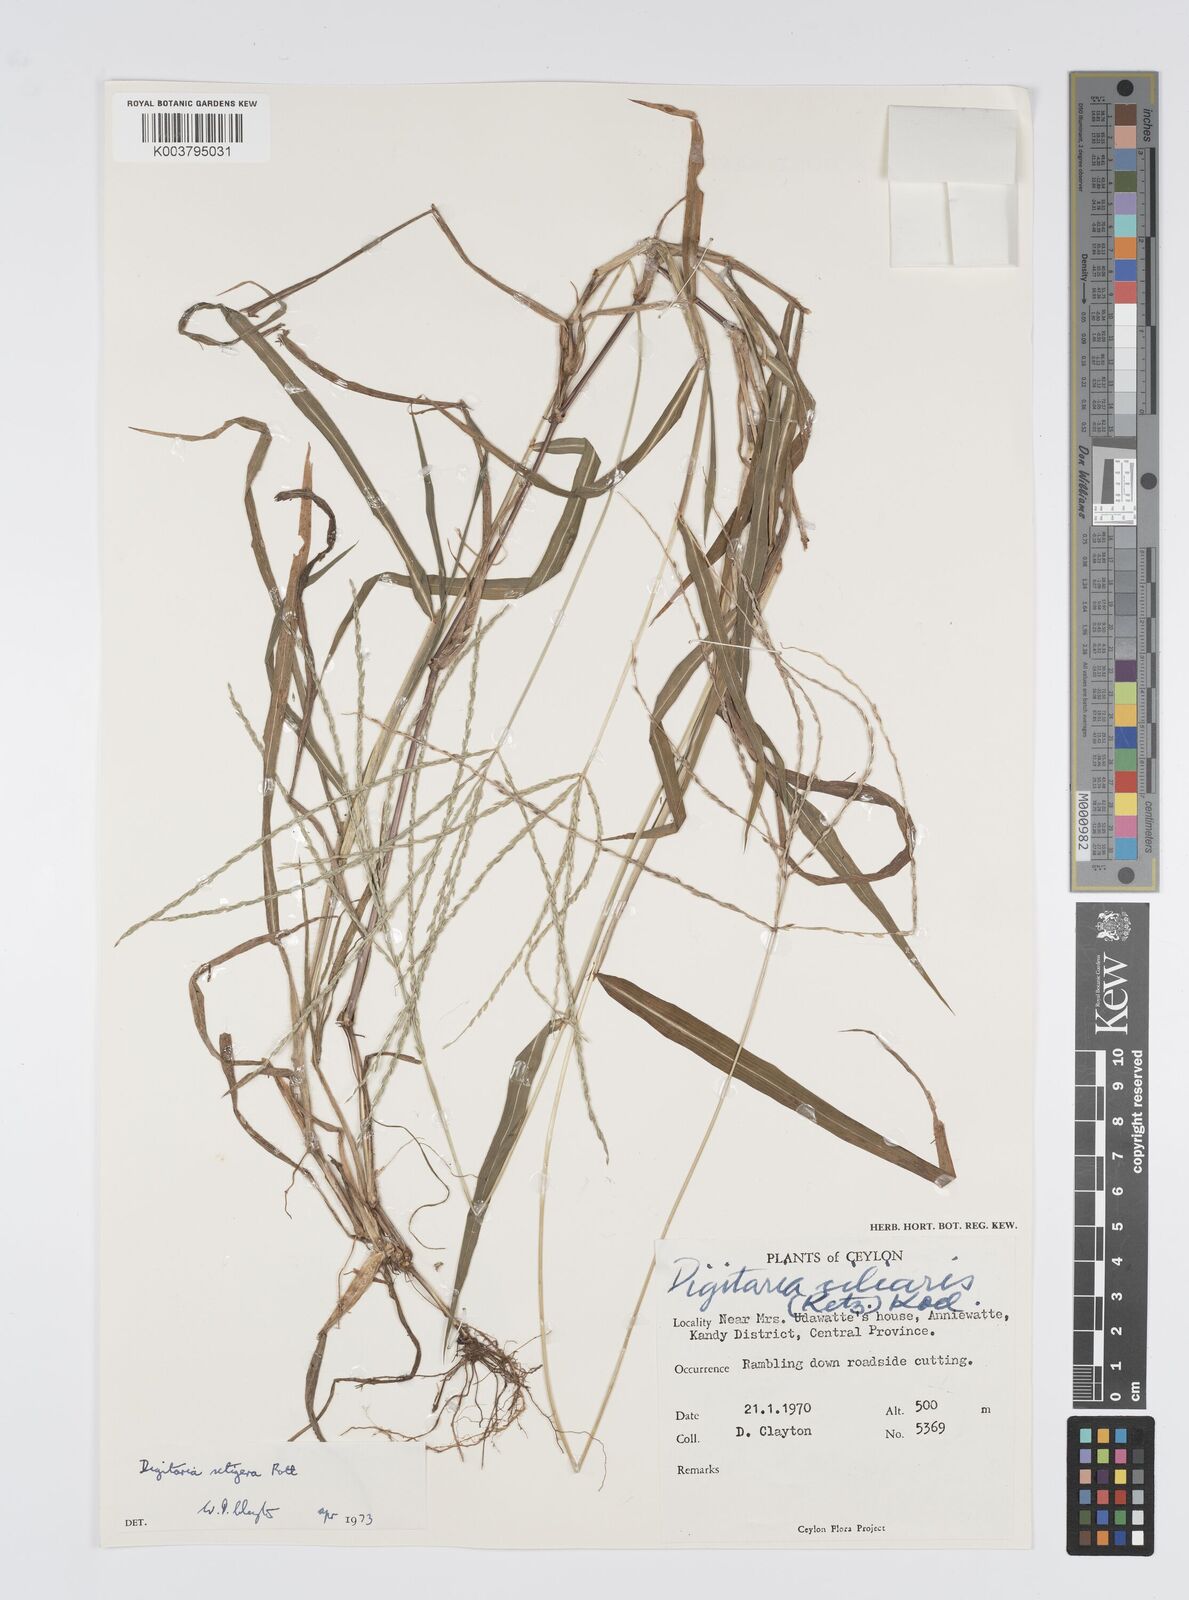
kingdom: Plantae
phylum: Tracheophyta
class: Liliopsida
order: Poales
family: Poaceae
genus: Digitaria
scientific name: Digitaria setigera
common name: East indian crabgrass
